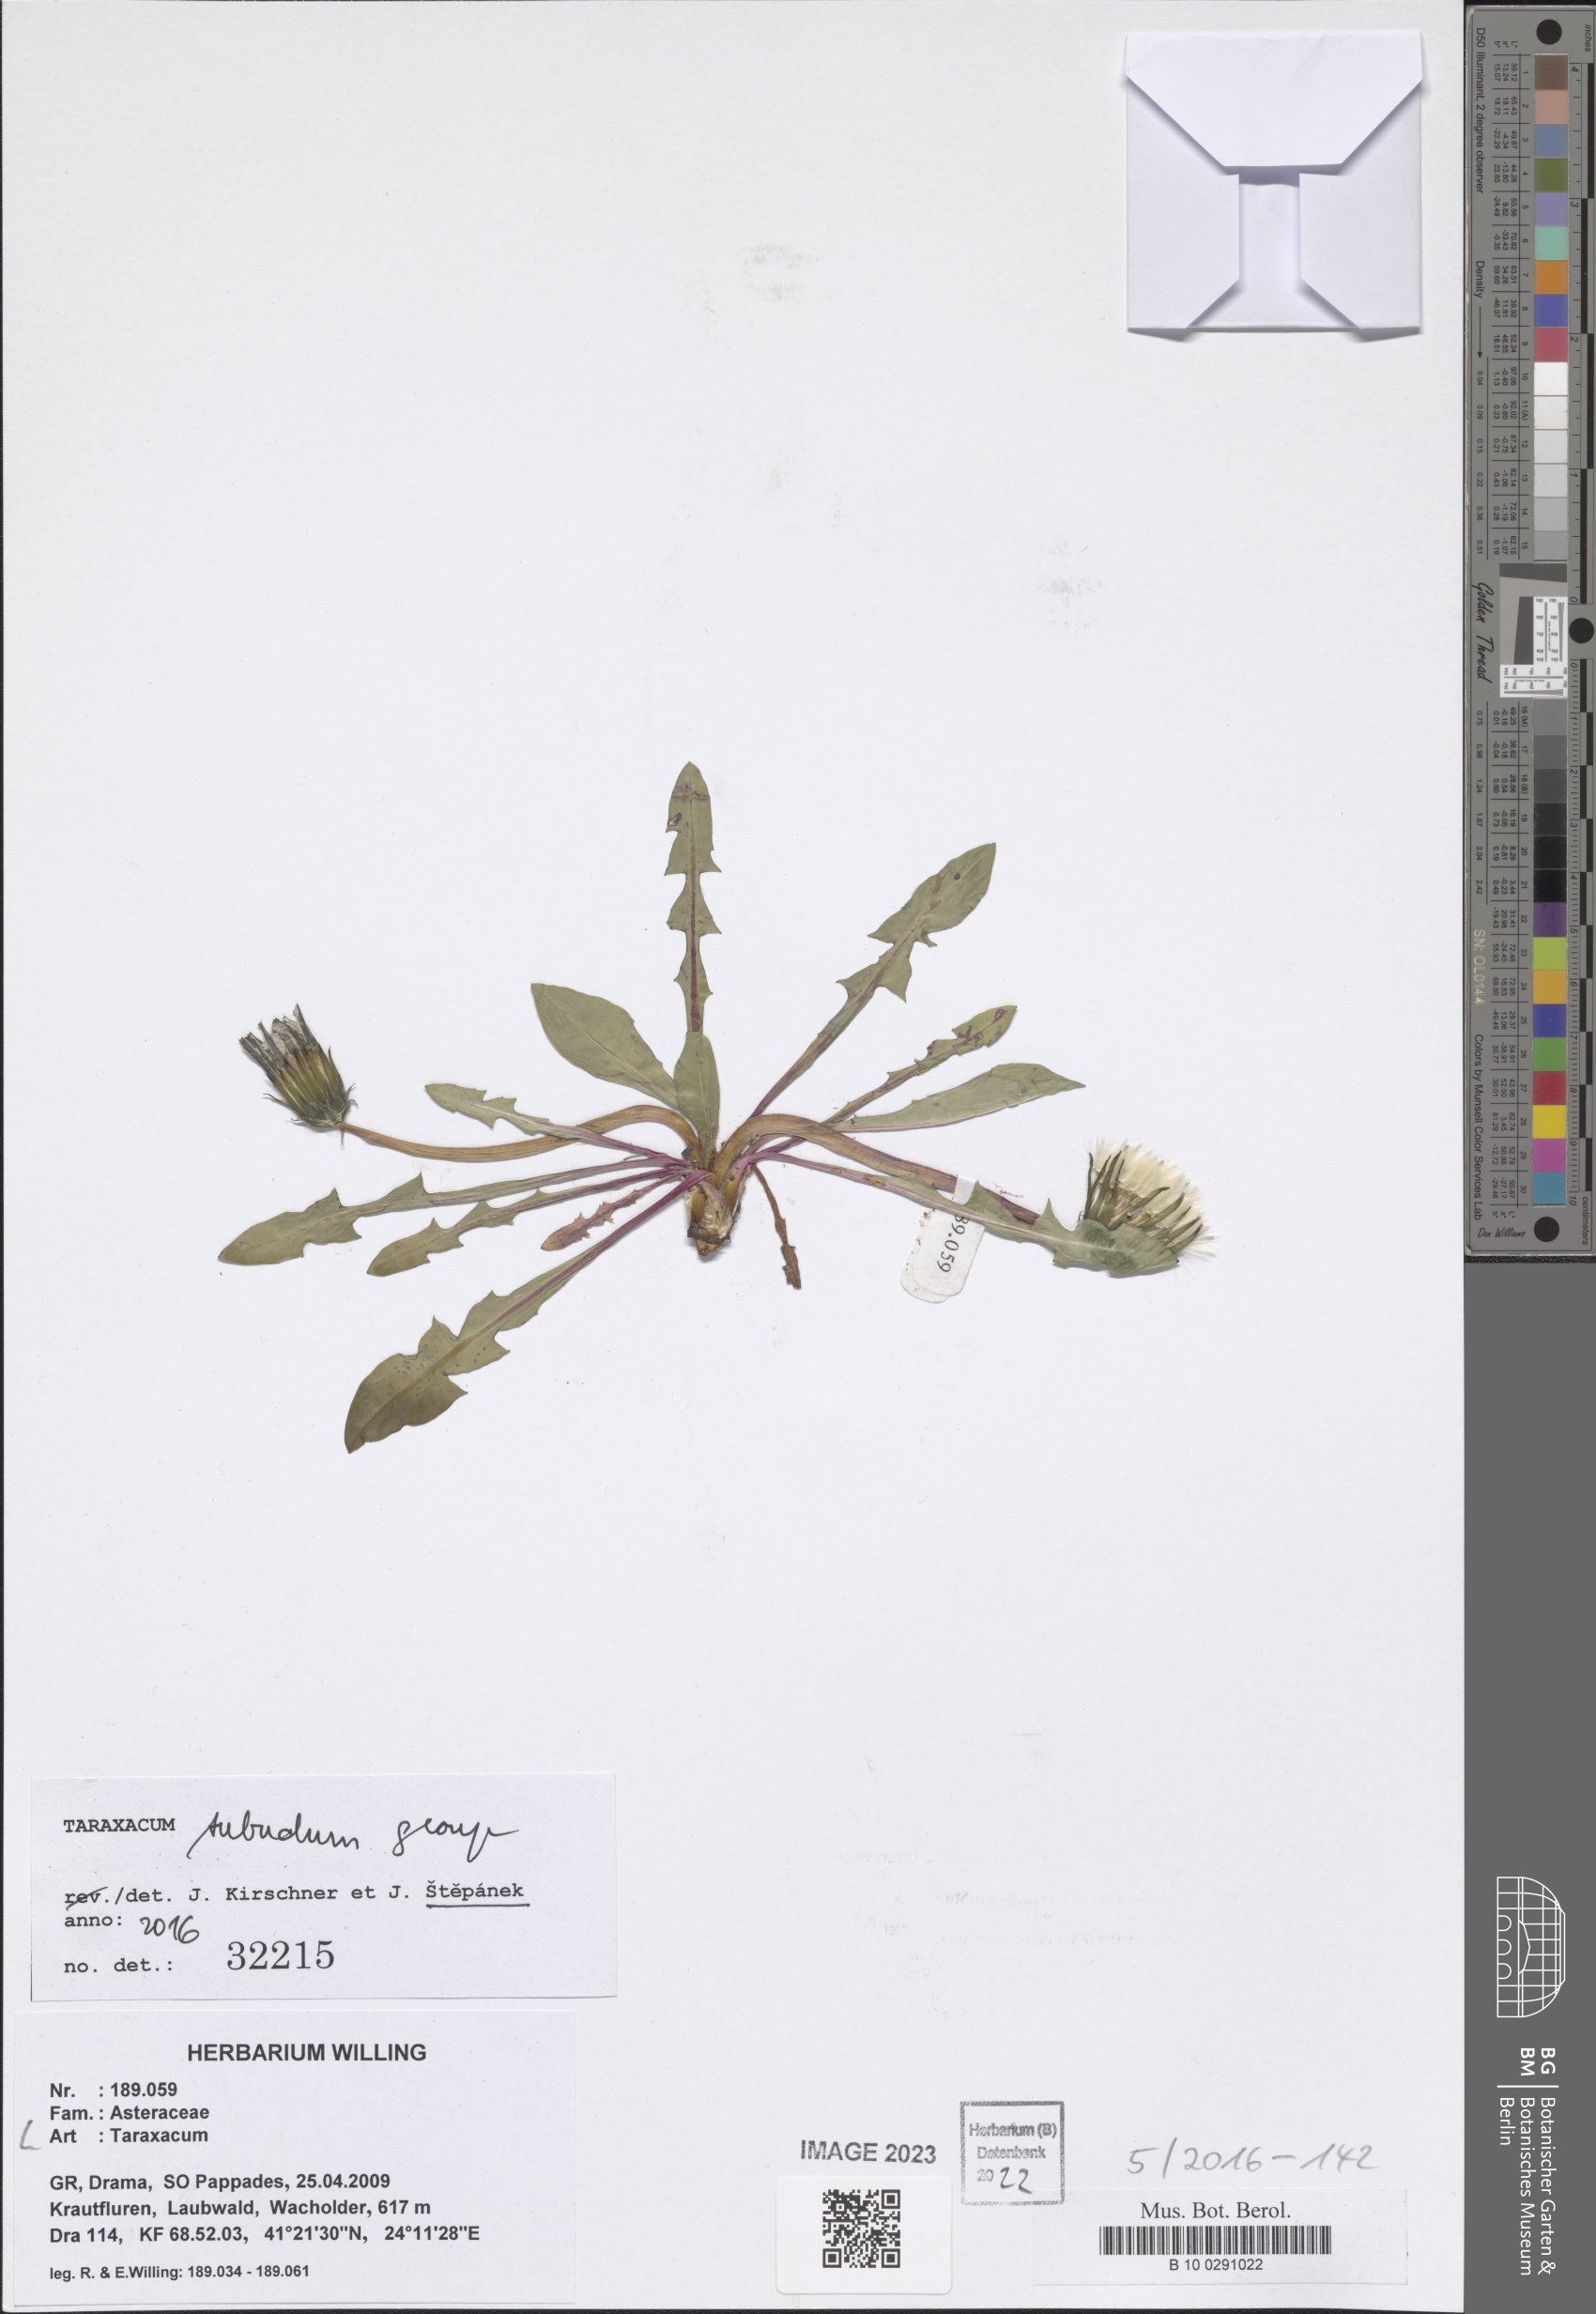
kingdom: Plantae
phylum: Tracheophyta
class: Magnoliopsida
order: Asterales
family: Asteraceae
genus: Taraxacum
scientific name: Taraxacum
